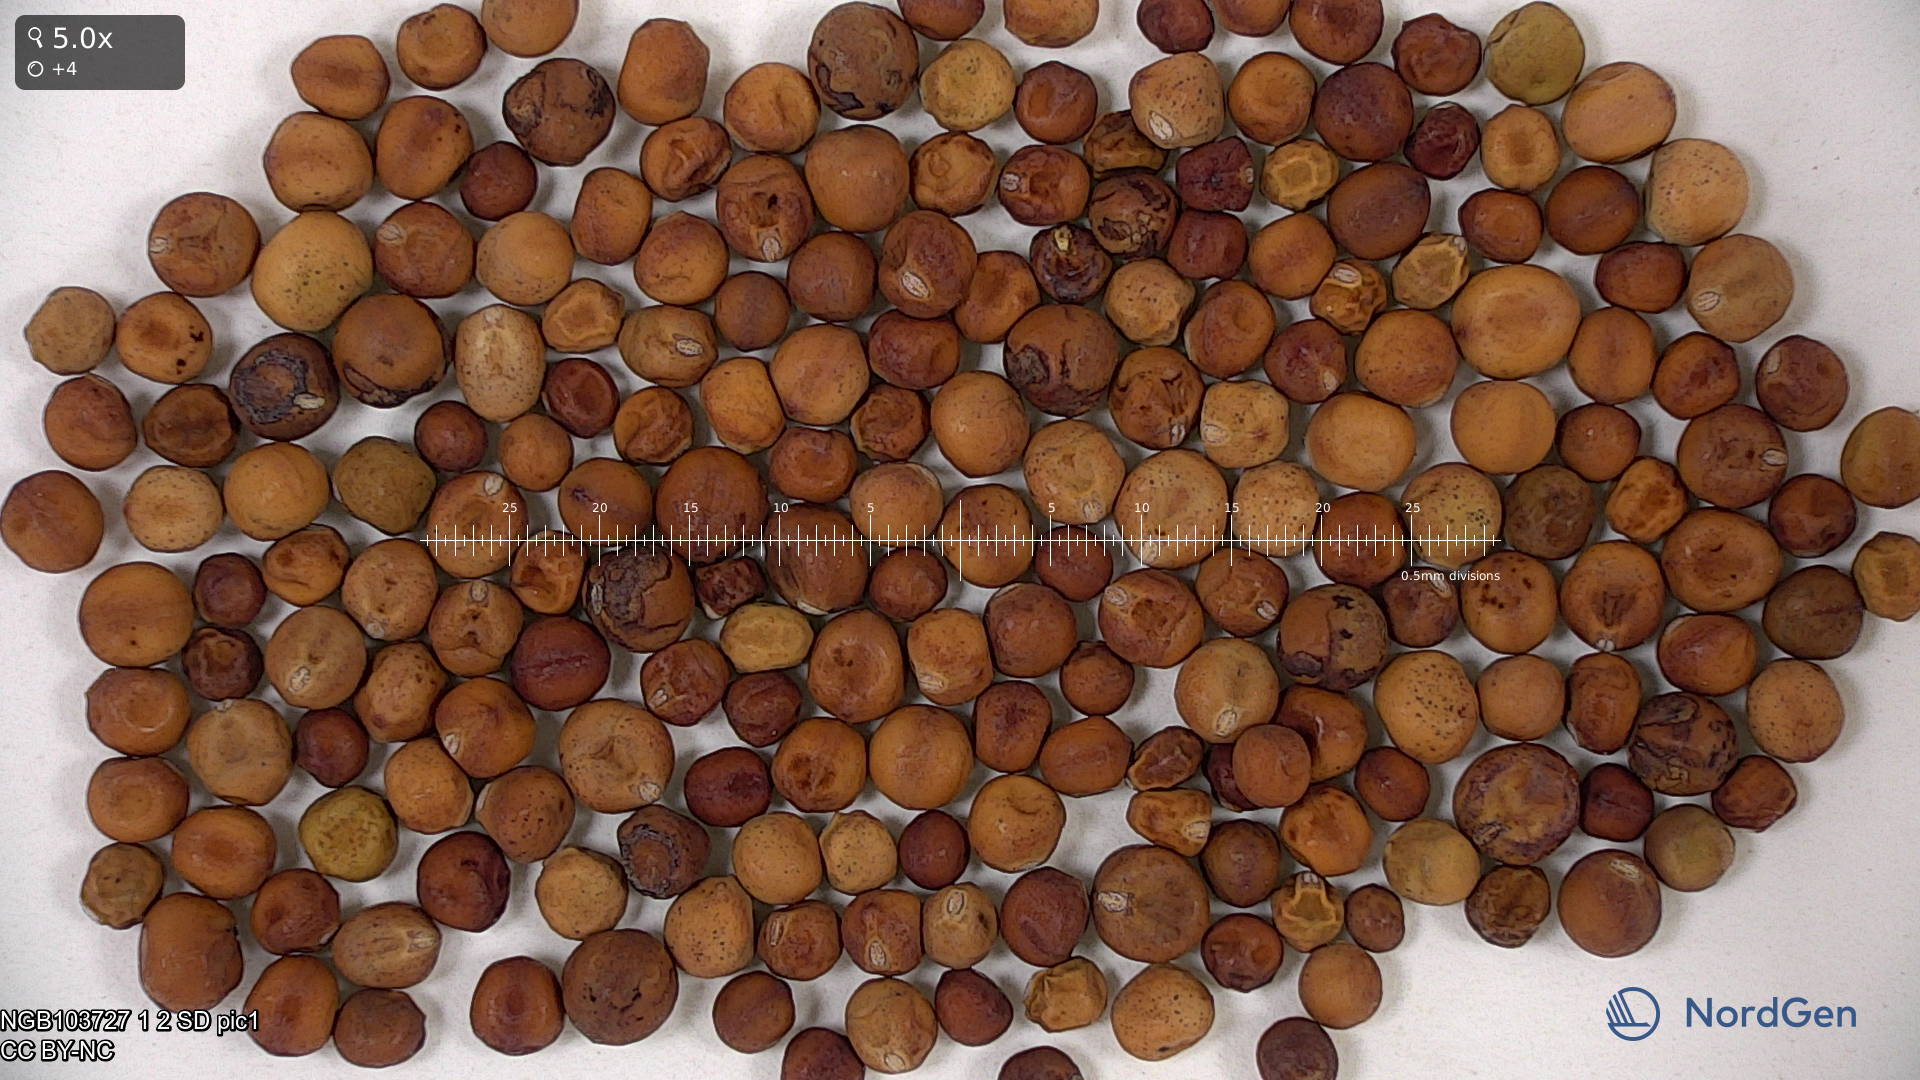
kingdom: Plantae
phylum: Tracheophyta
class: Magnoliopsida
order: Fabales
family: Fabaceae
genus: Lathyrus
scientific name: Lathyrus oleraceus
